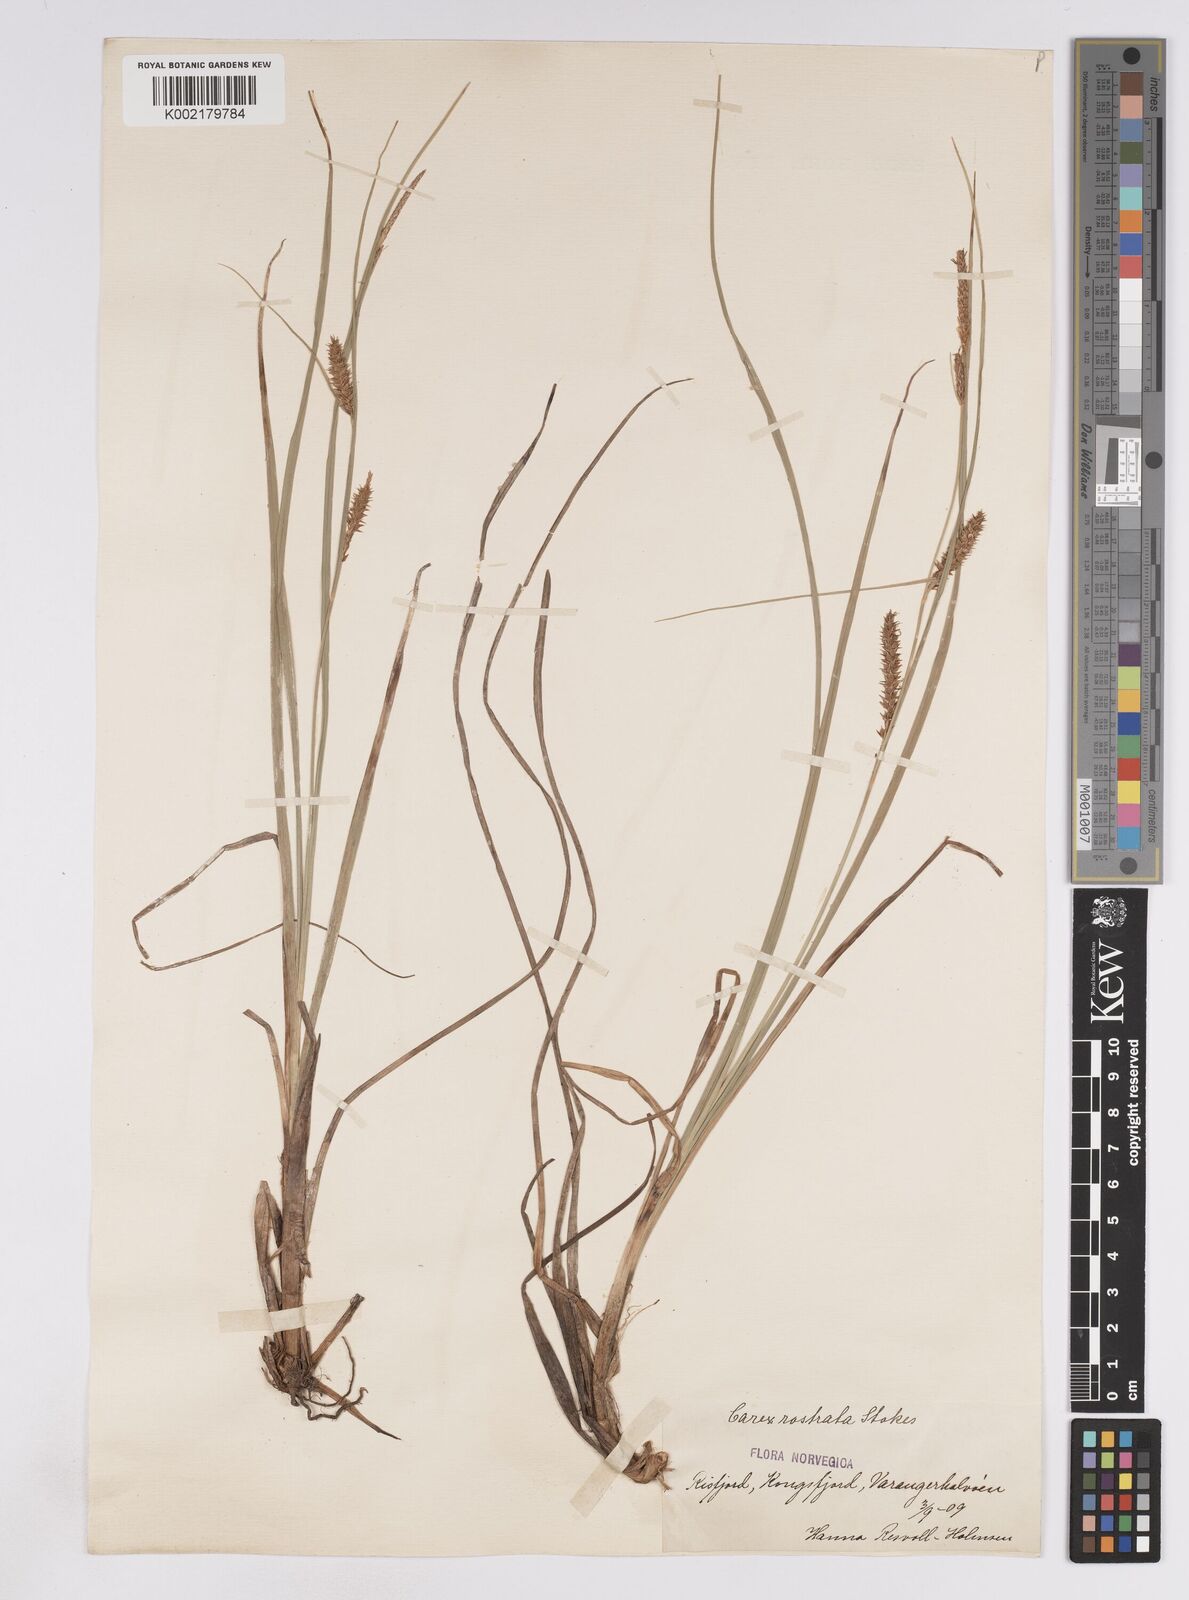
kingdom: Plantae
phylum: Tracheophyta
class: Liliopsida
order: Poales
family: Cyperaceae
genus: Carex
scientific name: Carex rostrata
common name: Bottle sedge
